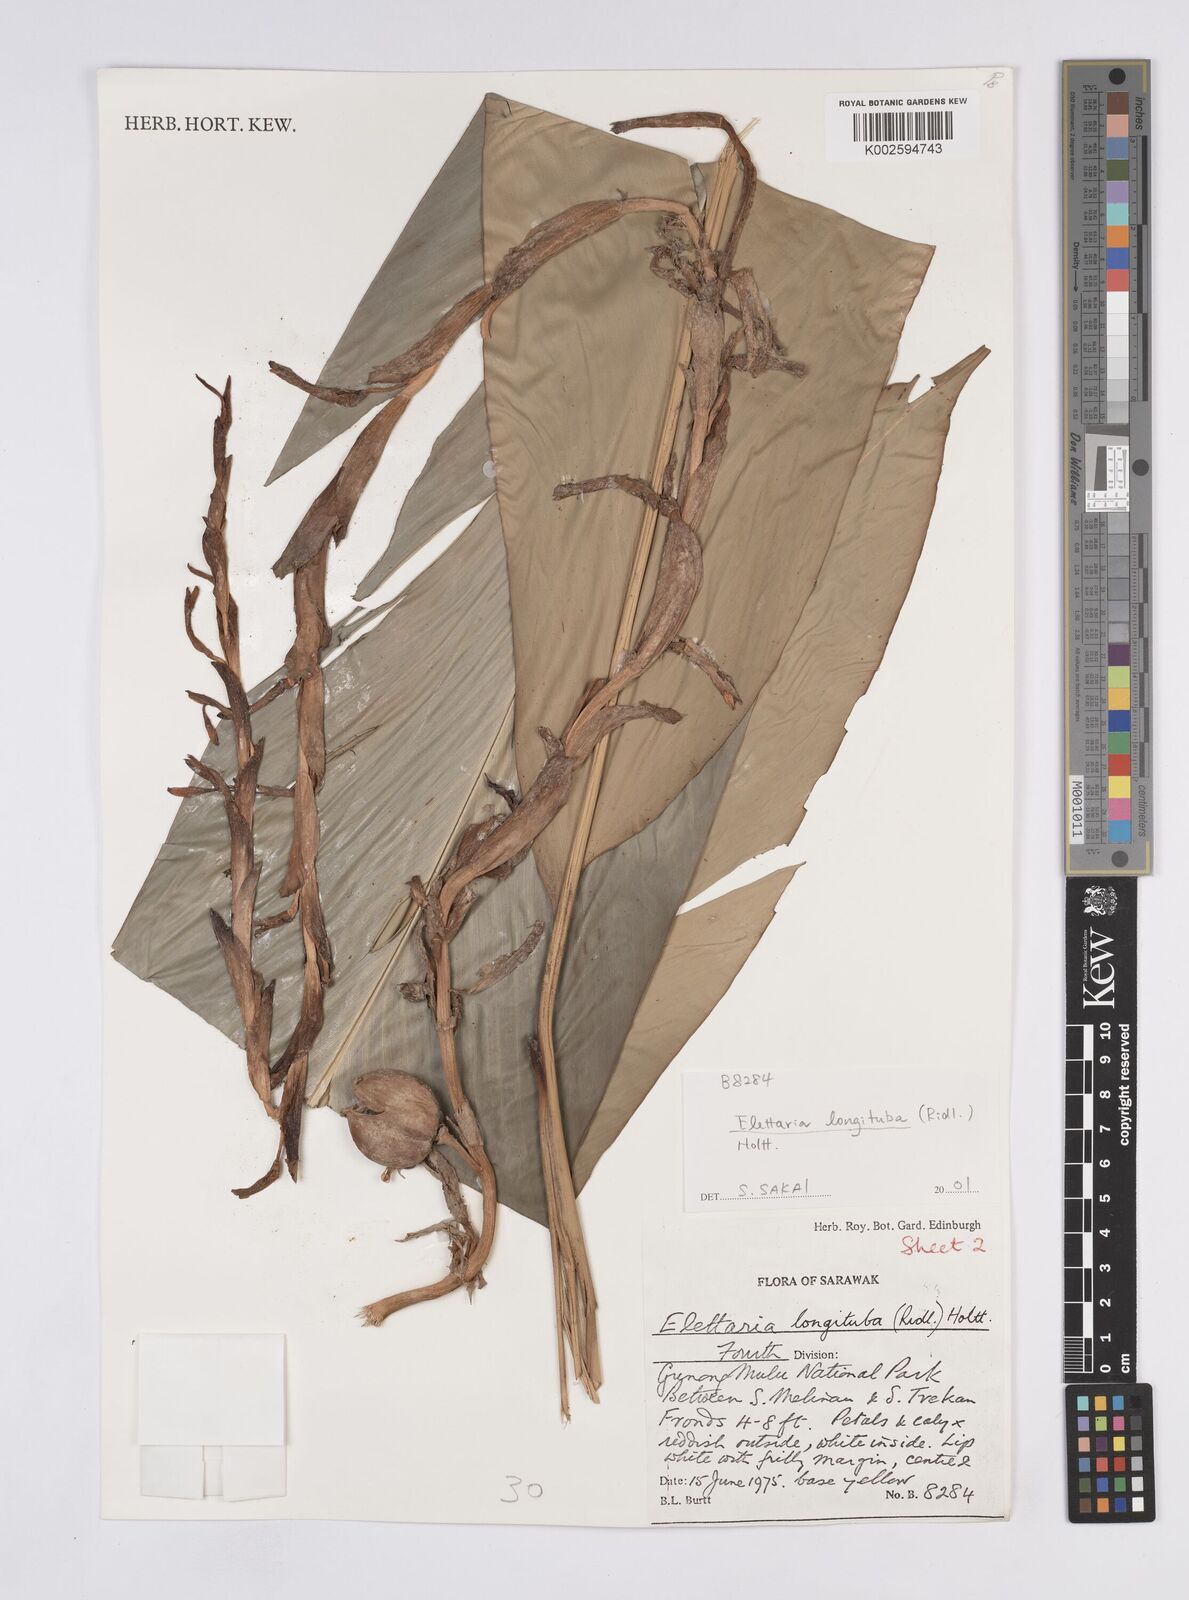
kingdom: Plantae
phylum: Tracheophyta
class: Liliopsida
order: Zingiberales
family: Zingiberaceae
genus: Sulettaria
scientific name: Sulettaria longituba
